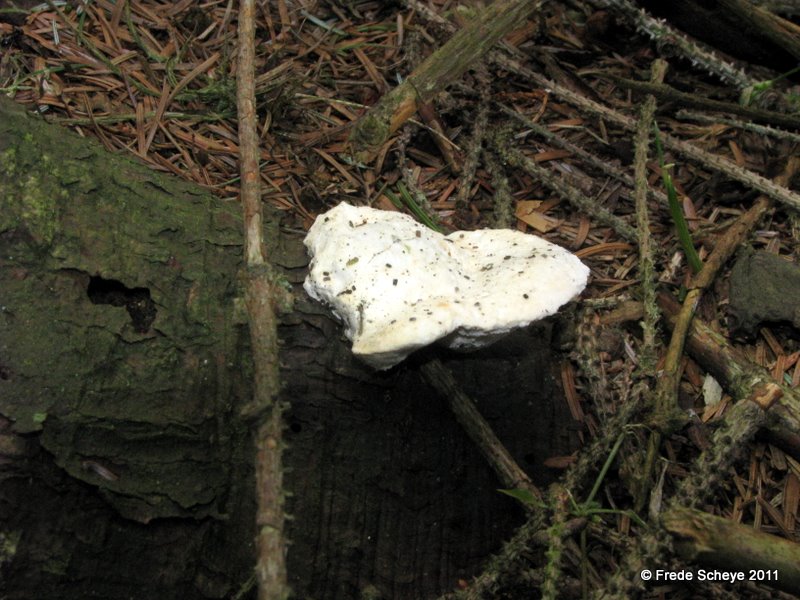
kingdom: Fungi
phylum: Basidiomycota
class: Agaricomycetes
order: Polyporales
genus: Amaropostia
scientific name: Amaropostia stiptica
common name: bitter kødporesvamp
